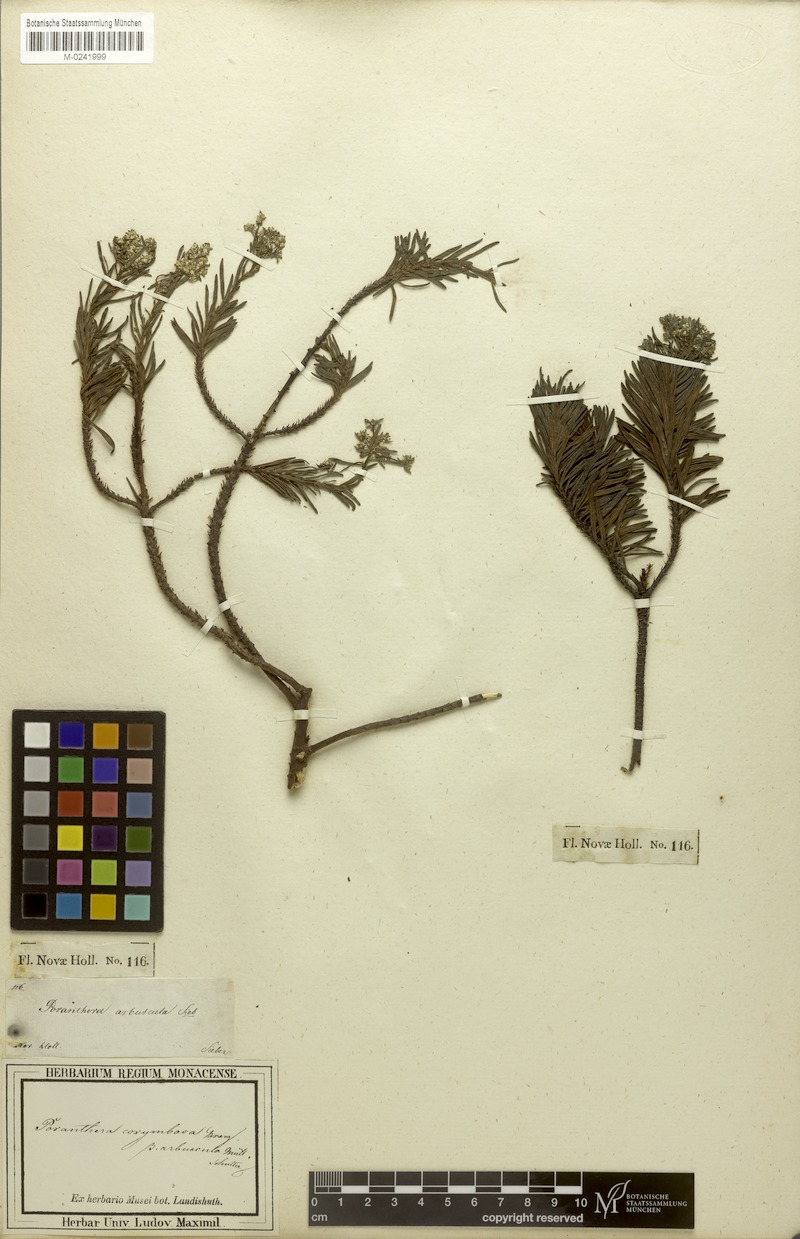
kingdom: Plantae
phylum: Tracheophyta
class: Magnoliopsida
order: Malpighiales
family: Phyllanthaceae
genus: Poranthera
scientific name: Poranthera corymbosa
